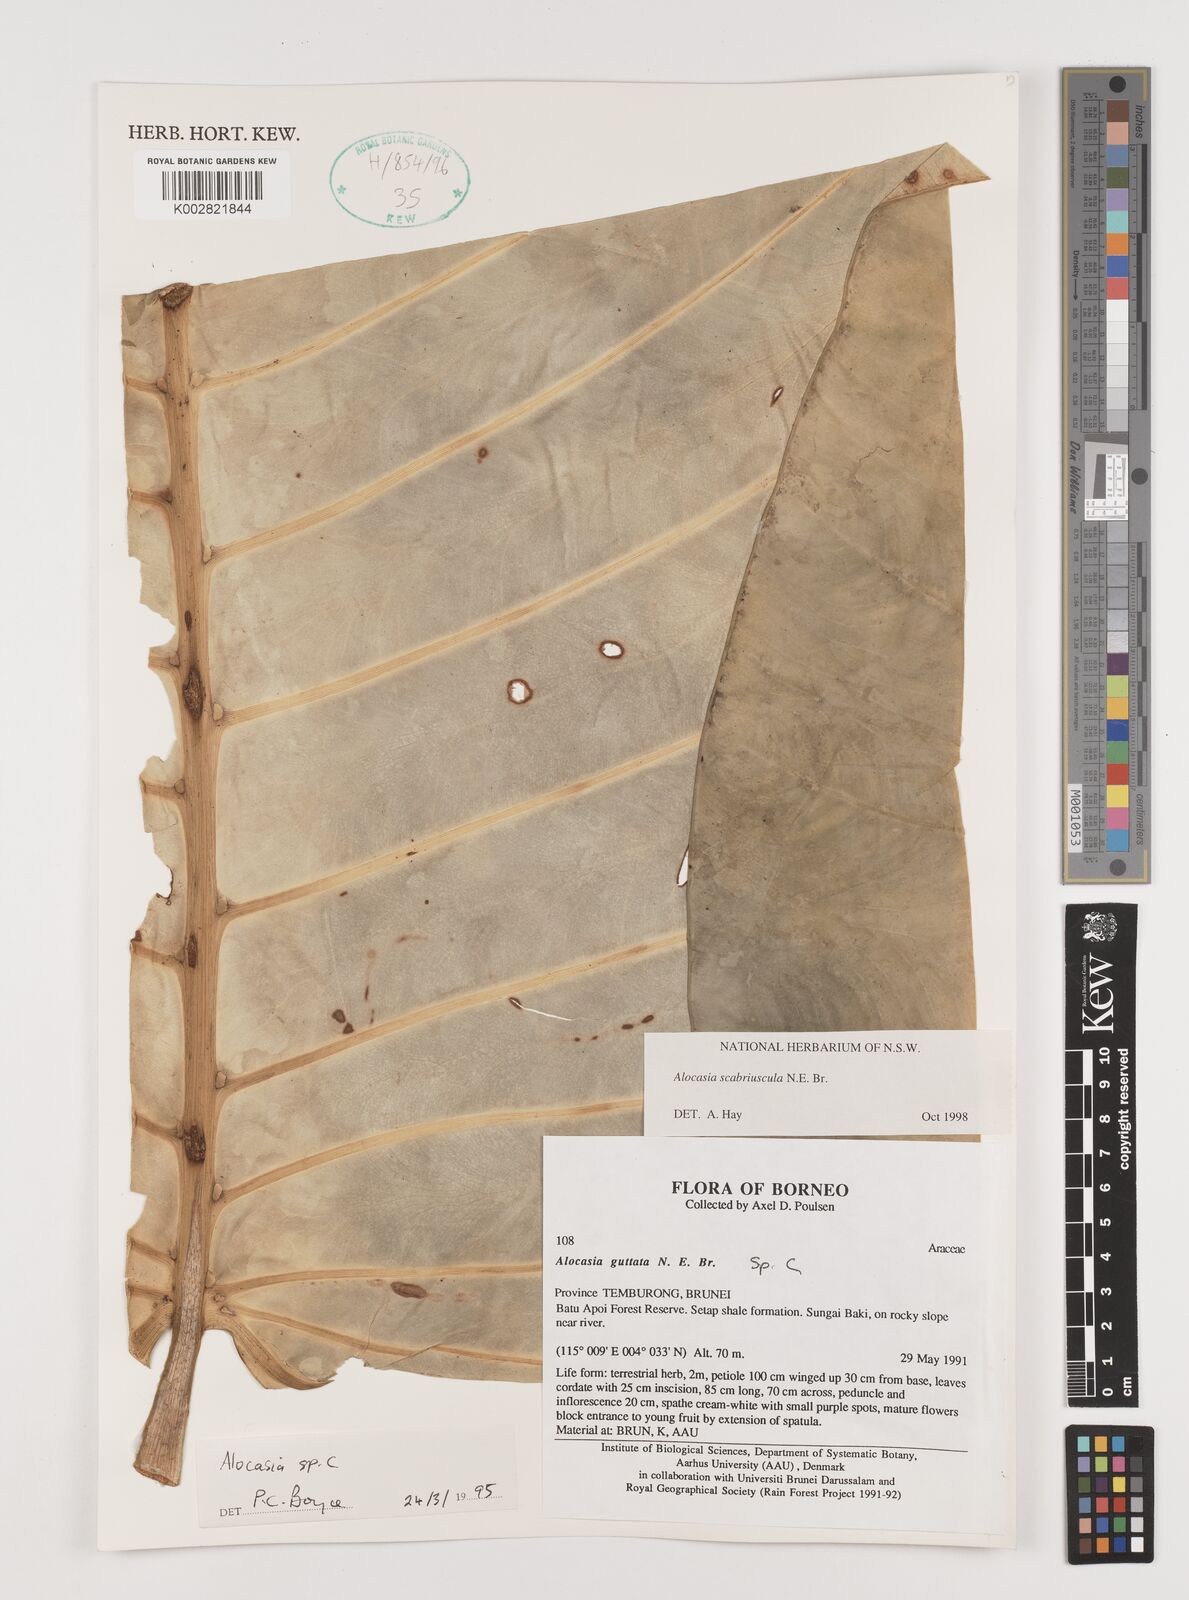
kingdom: Plantae
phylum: Tracheophyta
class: Liliopsida
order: Alismatales
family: Araceae
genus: Alocasia
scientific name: Alocasia scabriuscula
